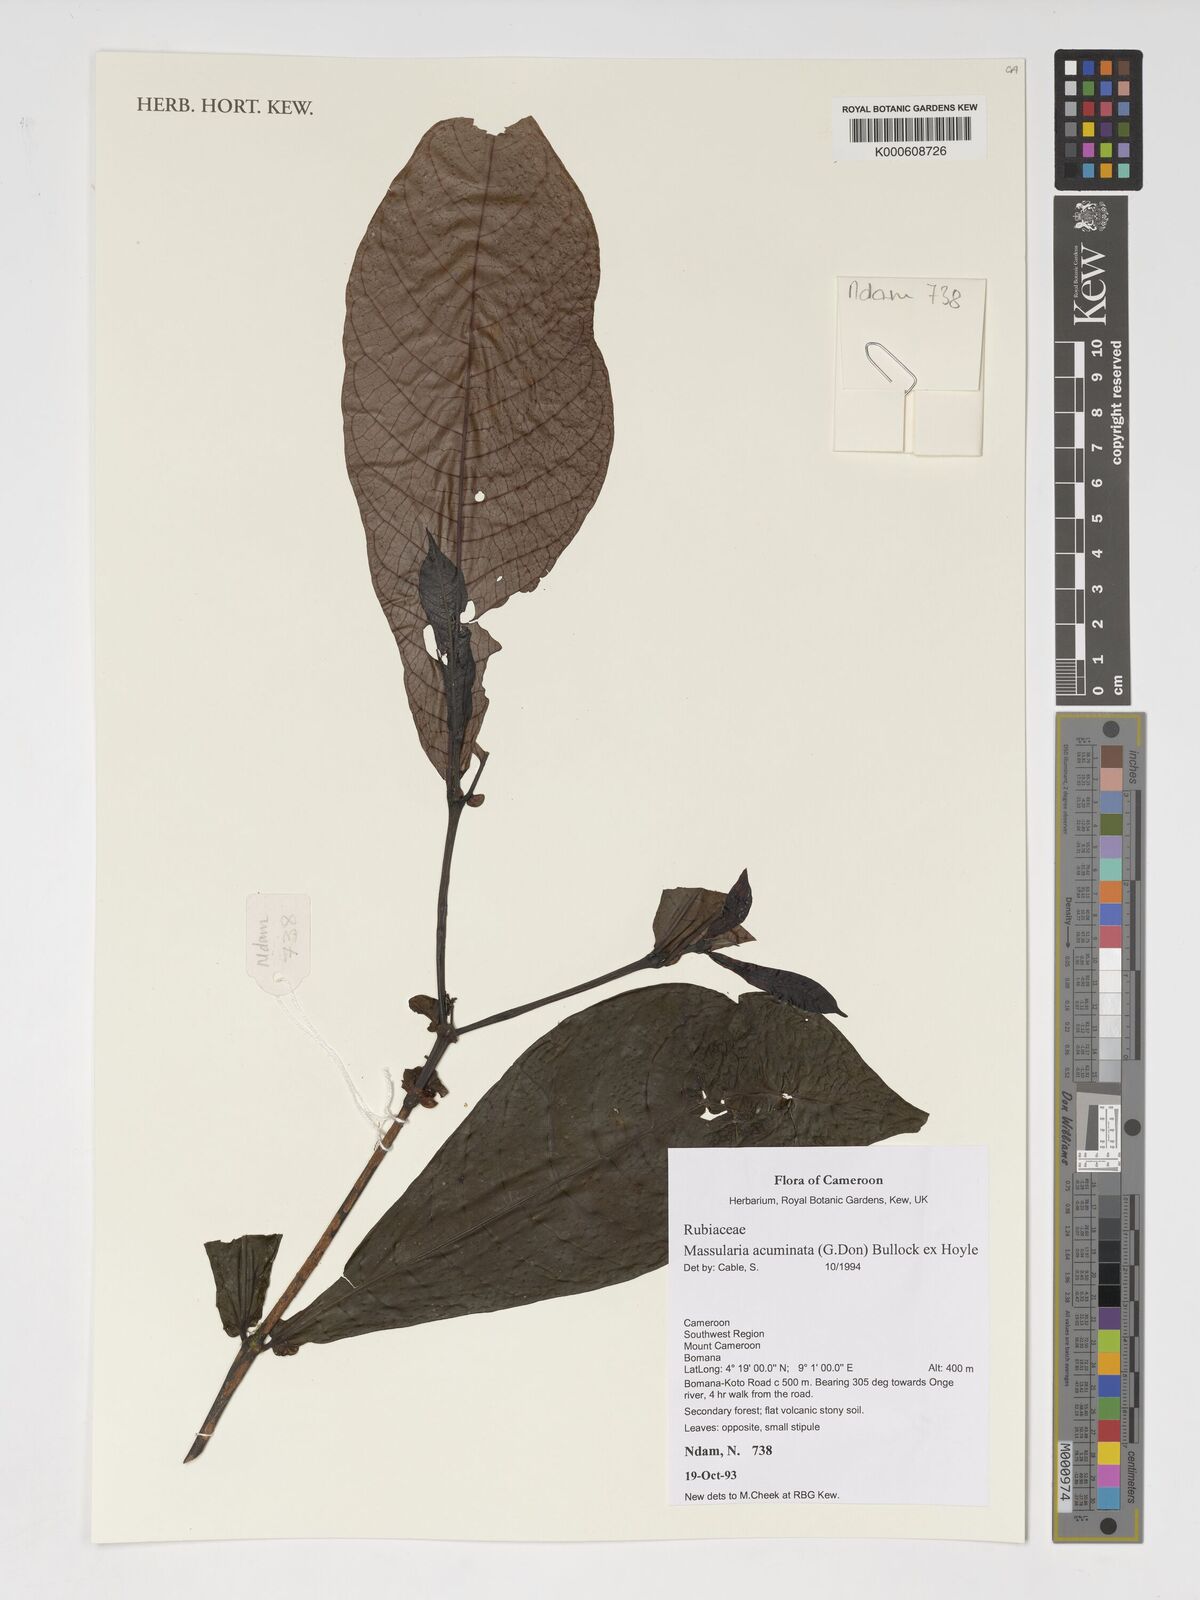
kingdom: Plantae
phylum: Tracheophyta
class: Magnoliopsida
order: Gentianales
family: Rubiaceae
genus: Massularia
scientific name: Massularia acuminata
